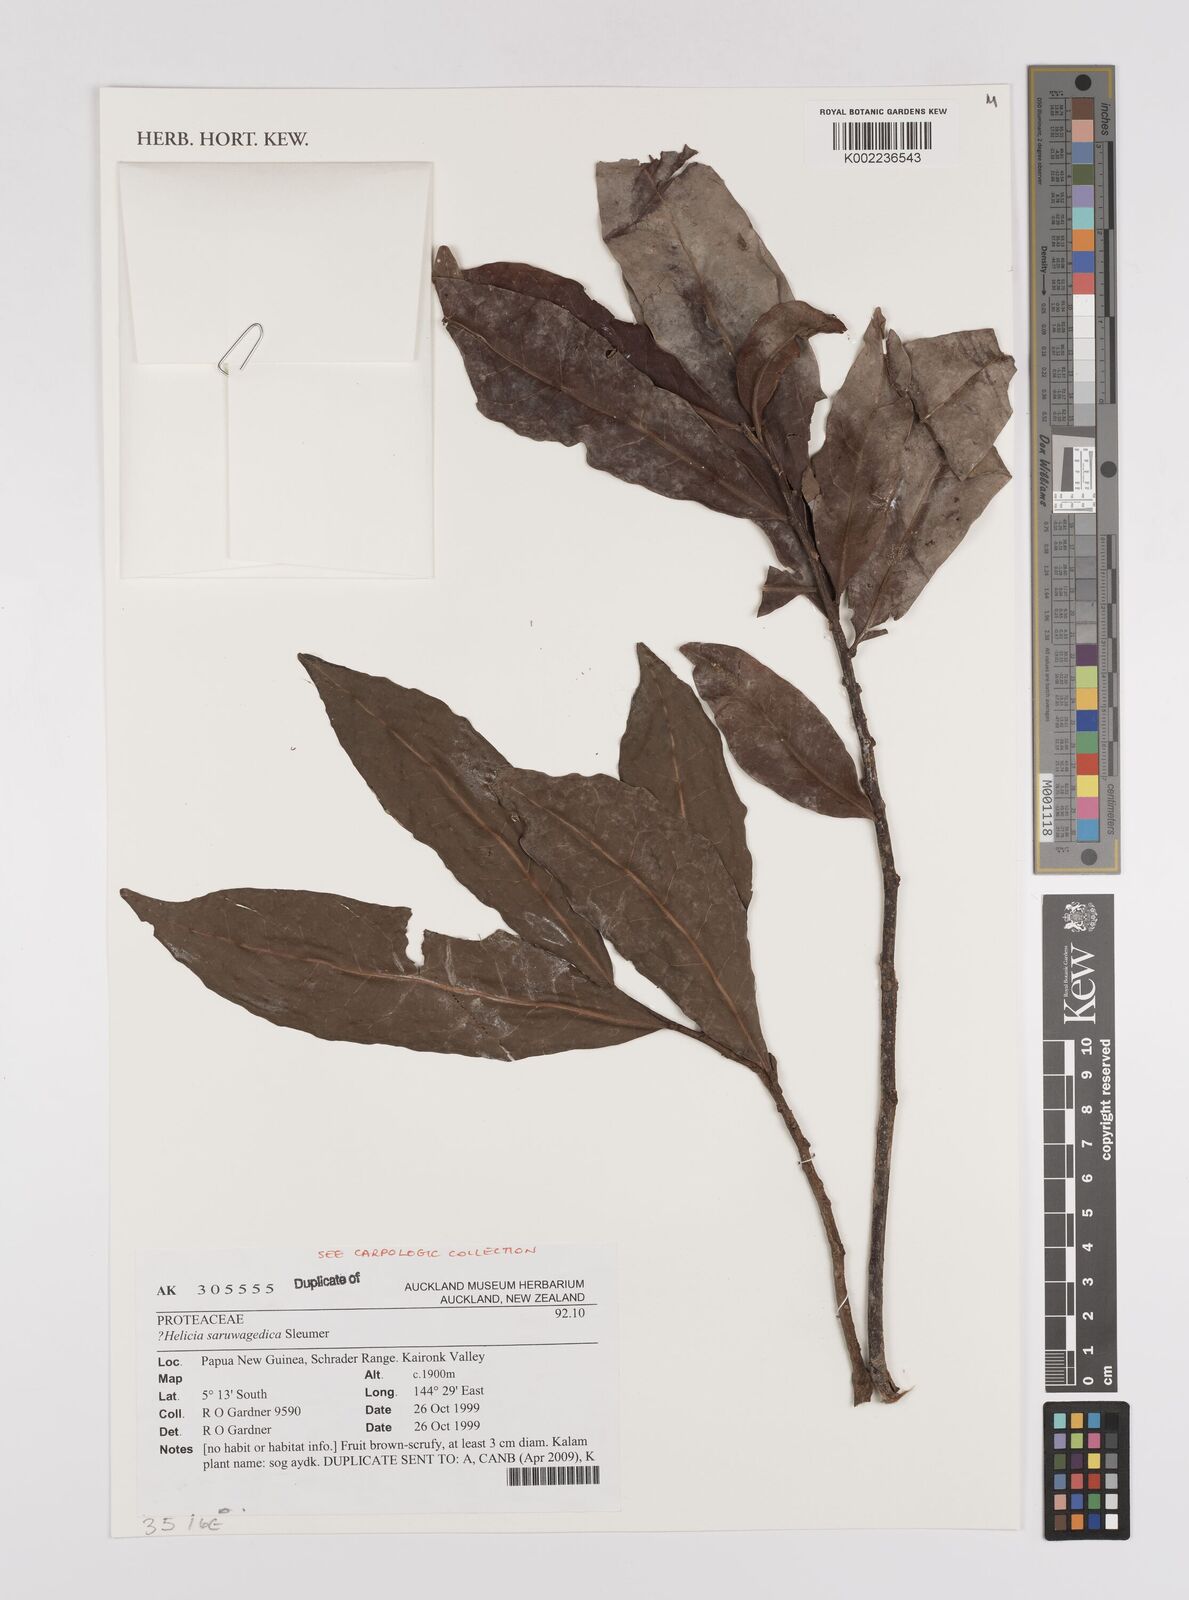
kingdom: Plantae
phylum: Tracheophyta
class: Magnoliopsida
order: Proteales
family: Proteaceae
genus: Helicia
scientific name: Helicia saruwagedica
